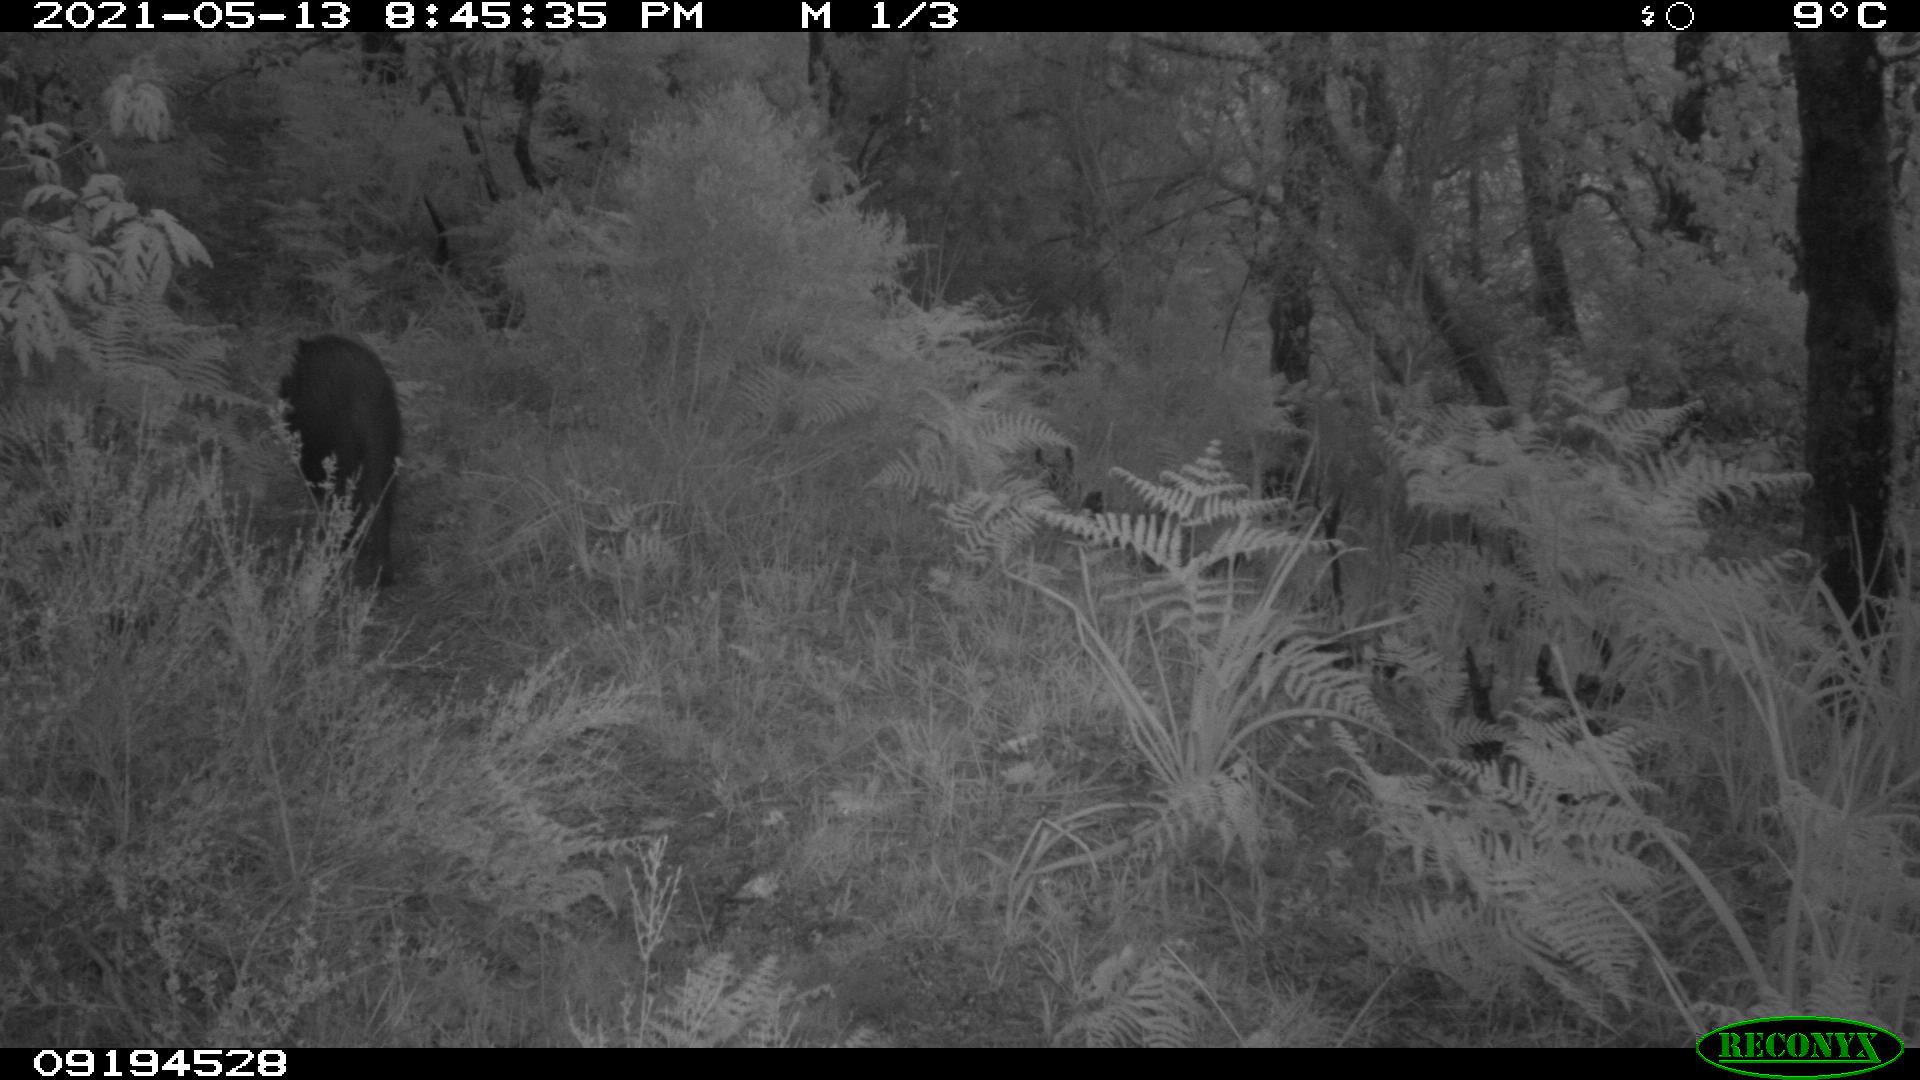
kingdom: Animalia
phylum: Chordata
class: Mammalia
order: Artiodactyla
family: Suidae
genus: Sus
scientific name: Sus scrofa
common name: Wild boar
